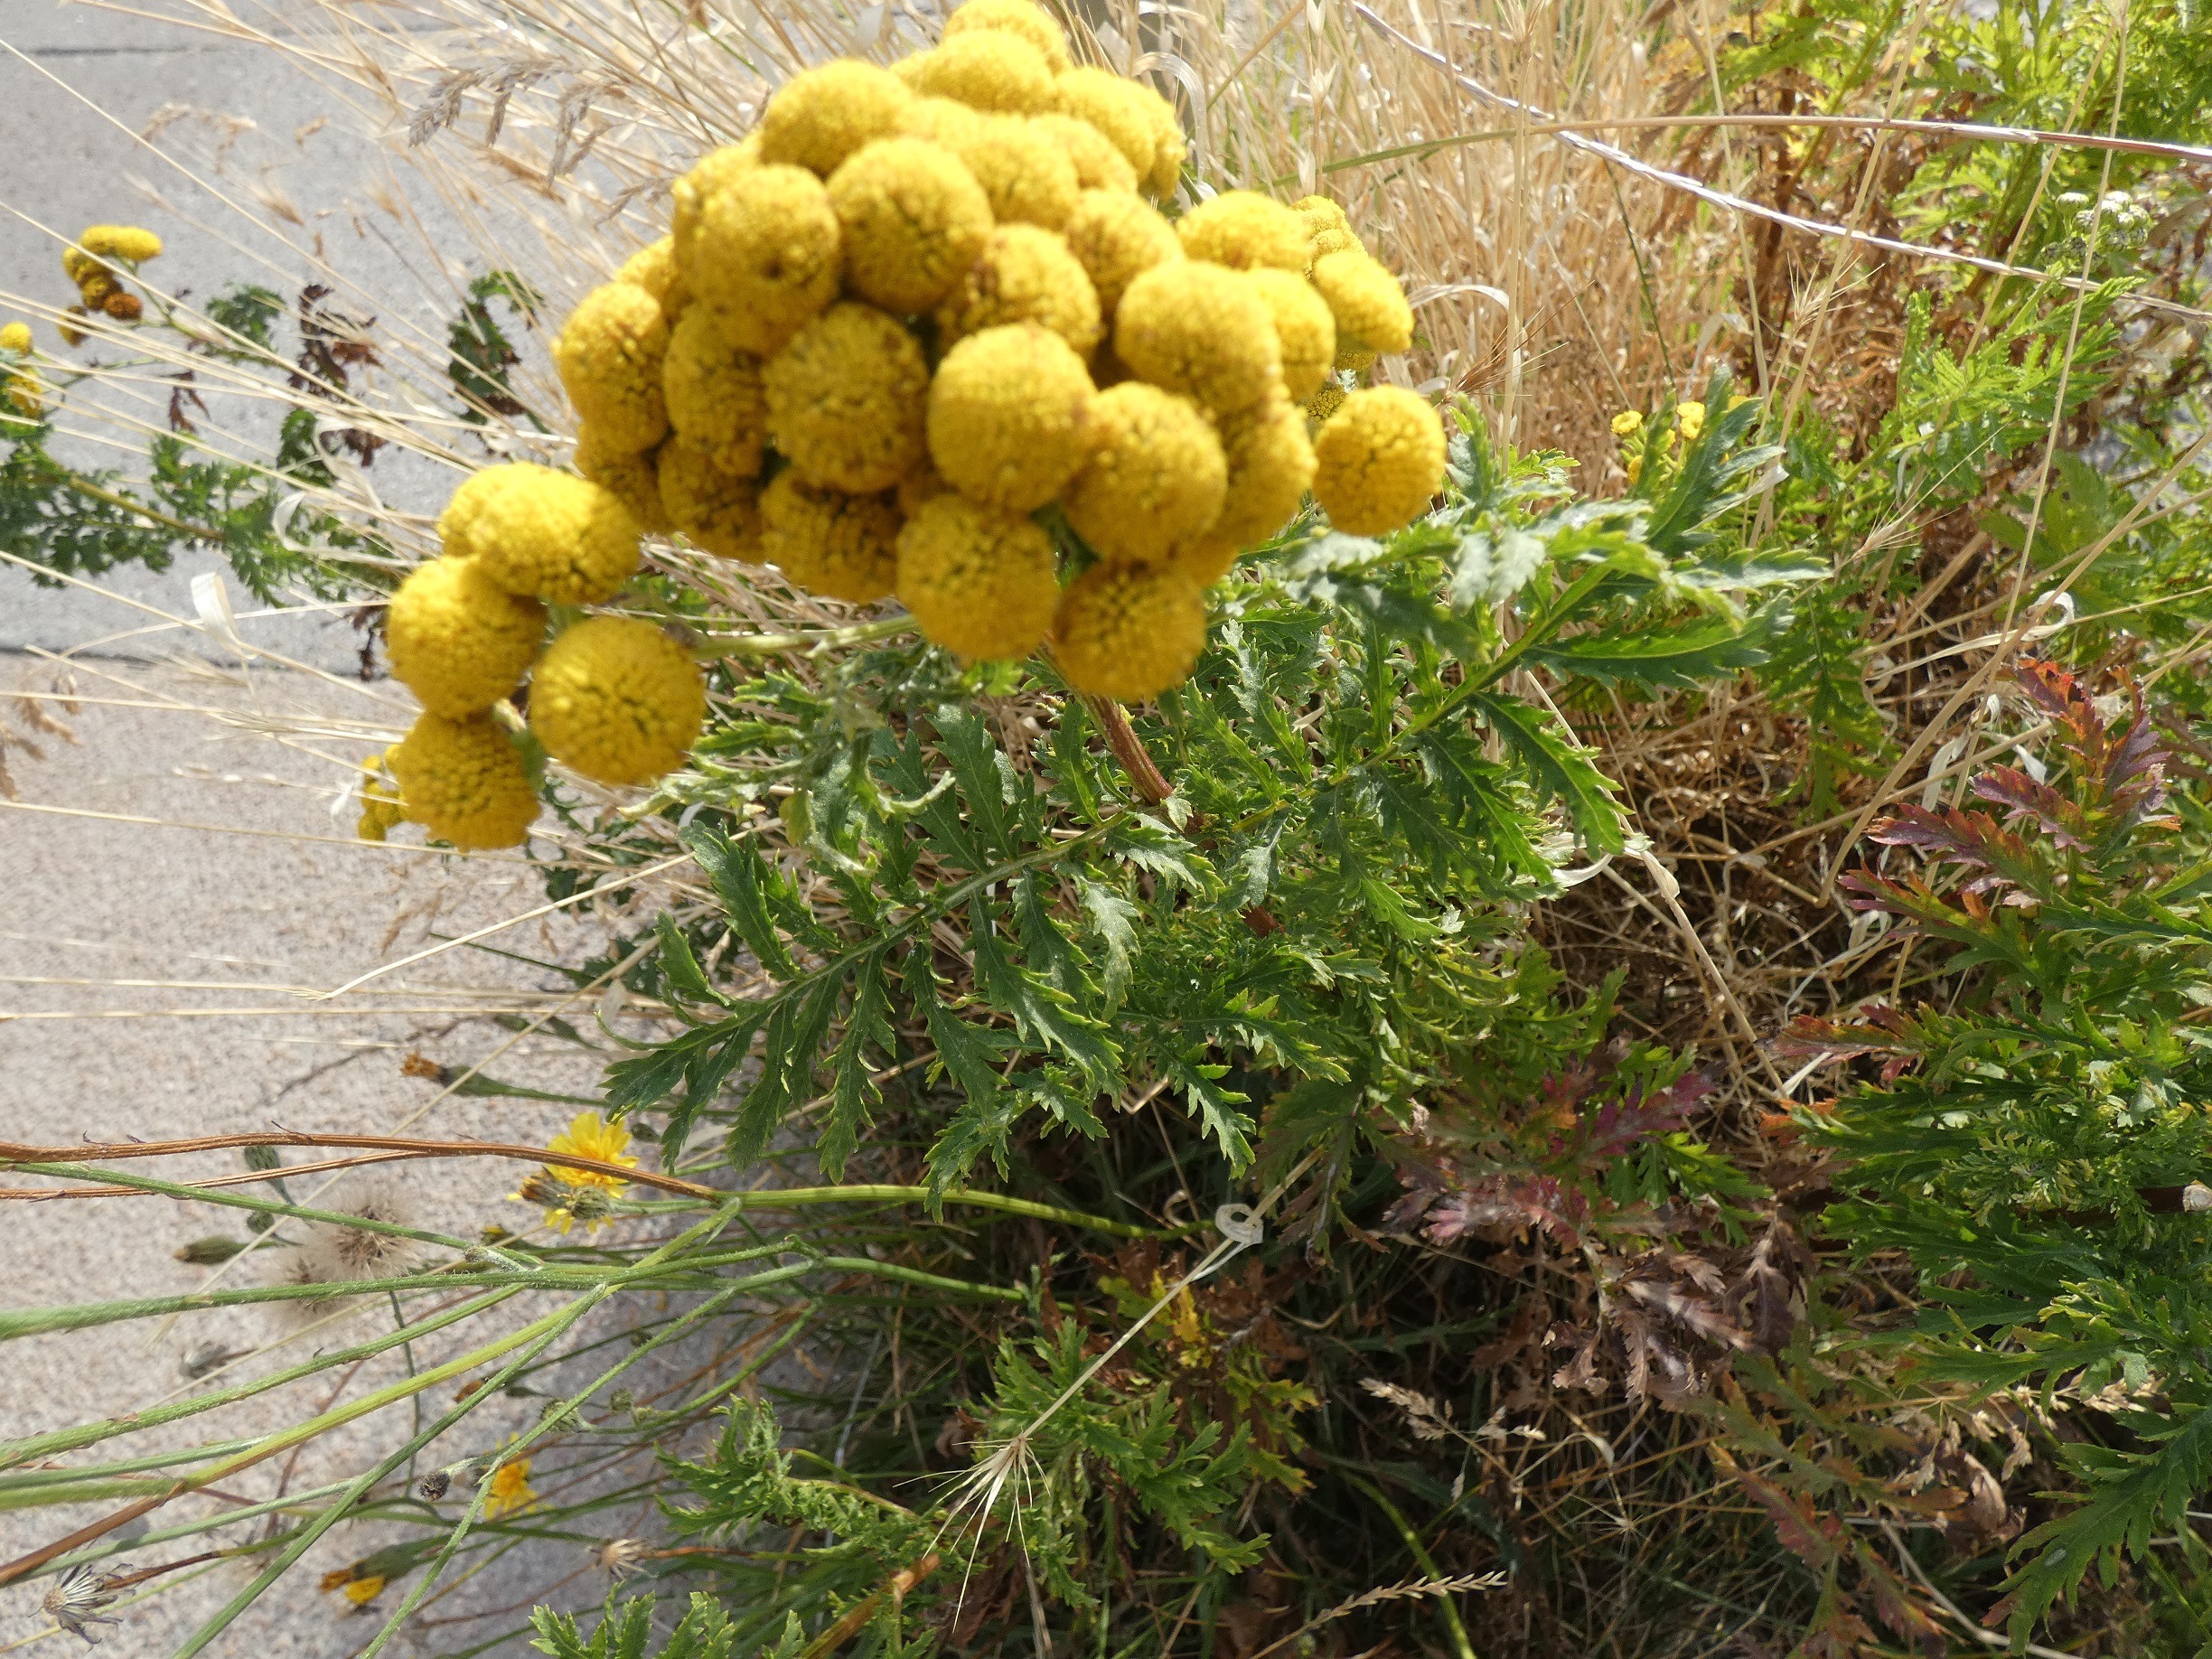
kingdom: Plantae
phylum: Tracheophyta
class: Magnoliopsida
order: Asterales
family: Asteraceae
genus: Tanacetum
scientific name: Tanacetum vulgare
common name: Rejnfan
